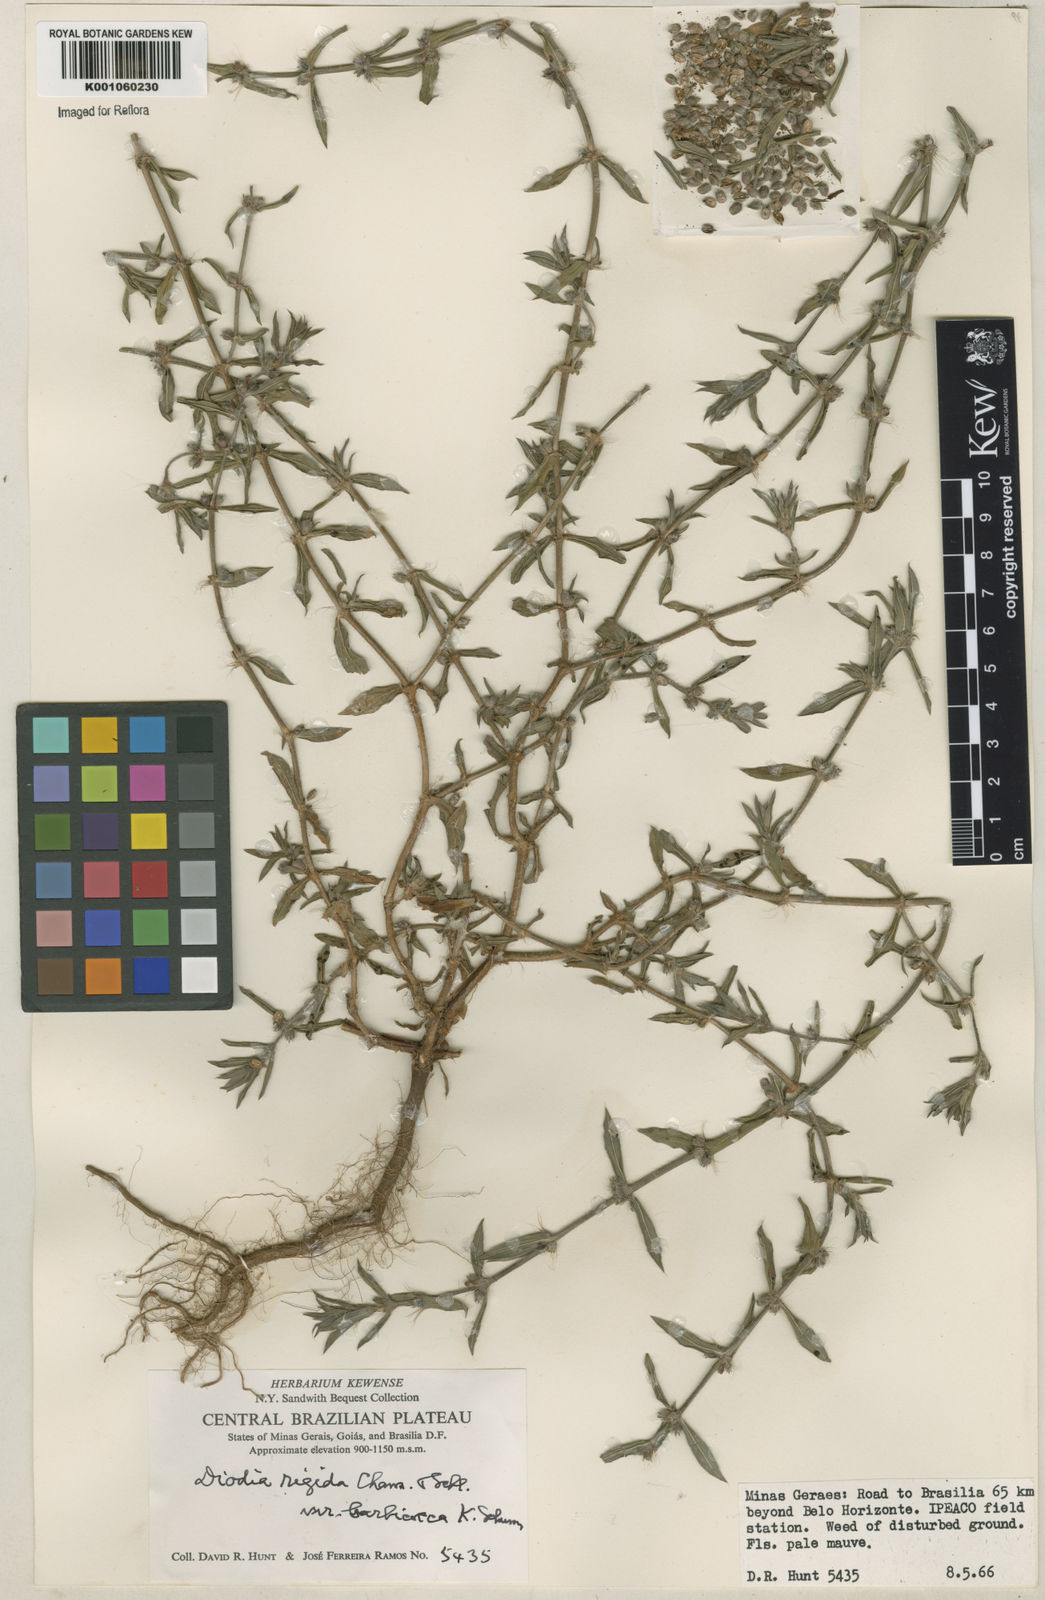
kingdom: Plantae
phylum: Tracheophyta
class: Magnoliopsida
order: Gentianales
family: Rubiaceae
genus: Hexasepalum
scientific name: Hexasepalum apiculatum
